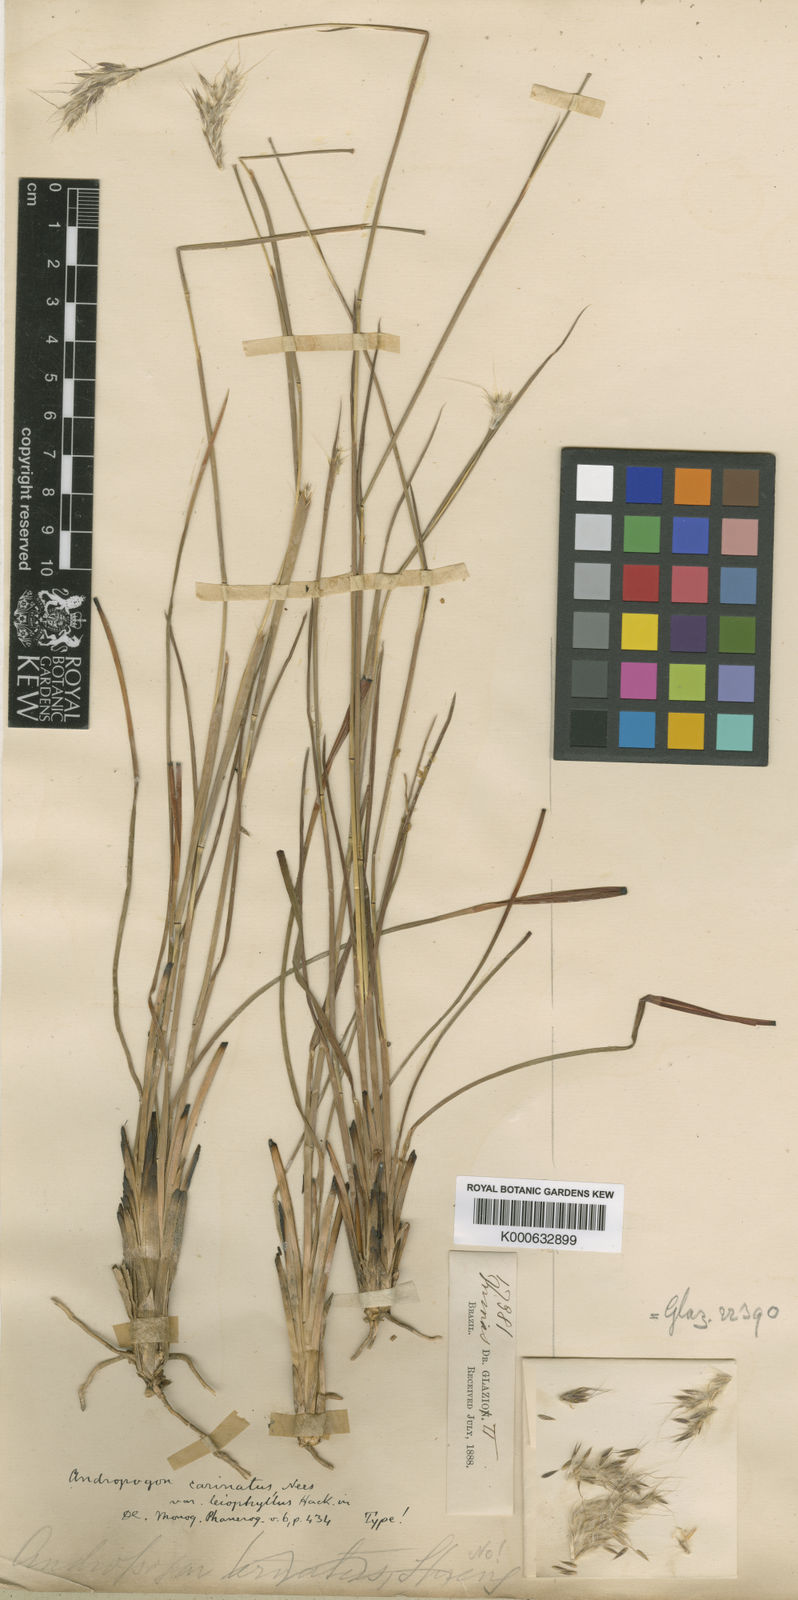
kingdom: Plantae
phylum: Tracheophyta
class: Liliopsida
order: Poales
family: Poaceae
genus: Andropogon
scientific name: Andropogon carinatus
